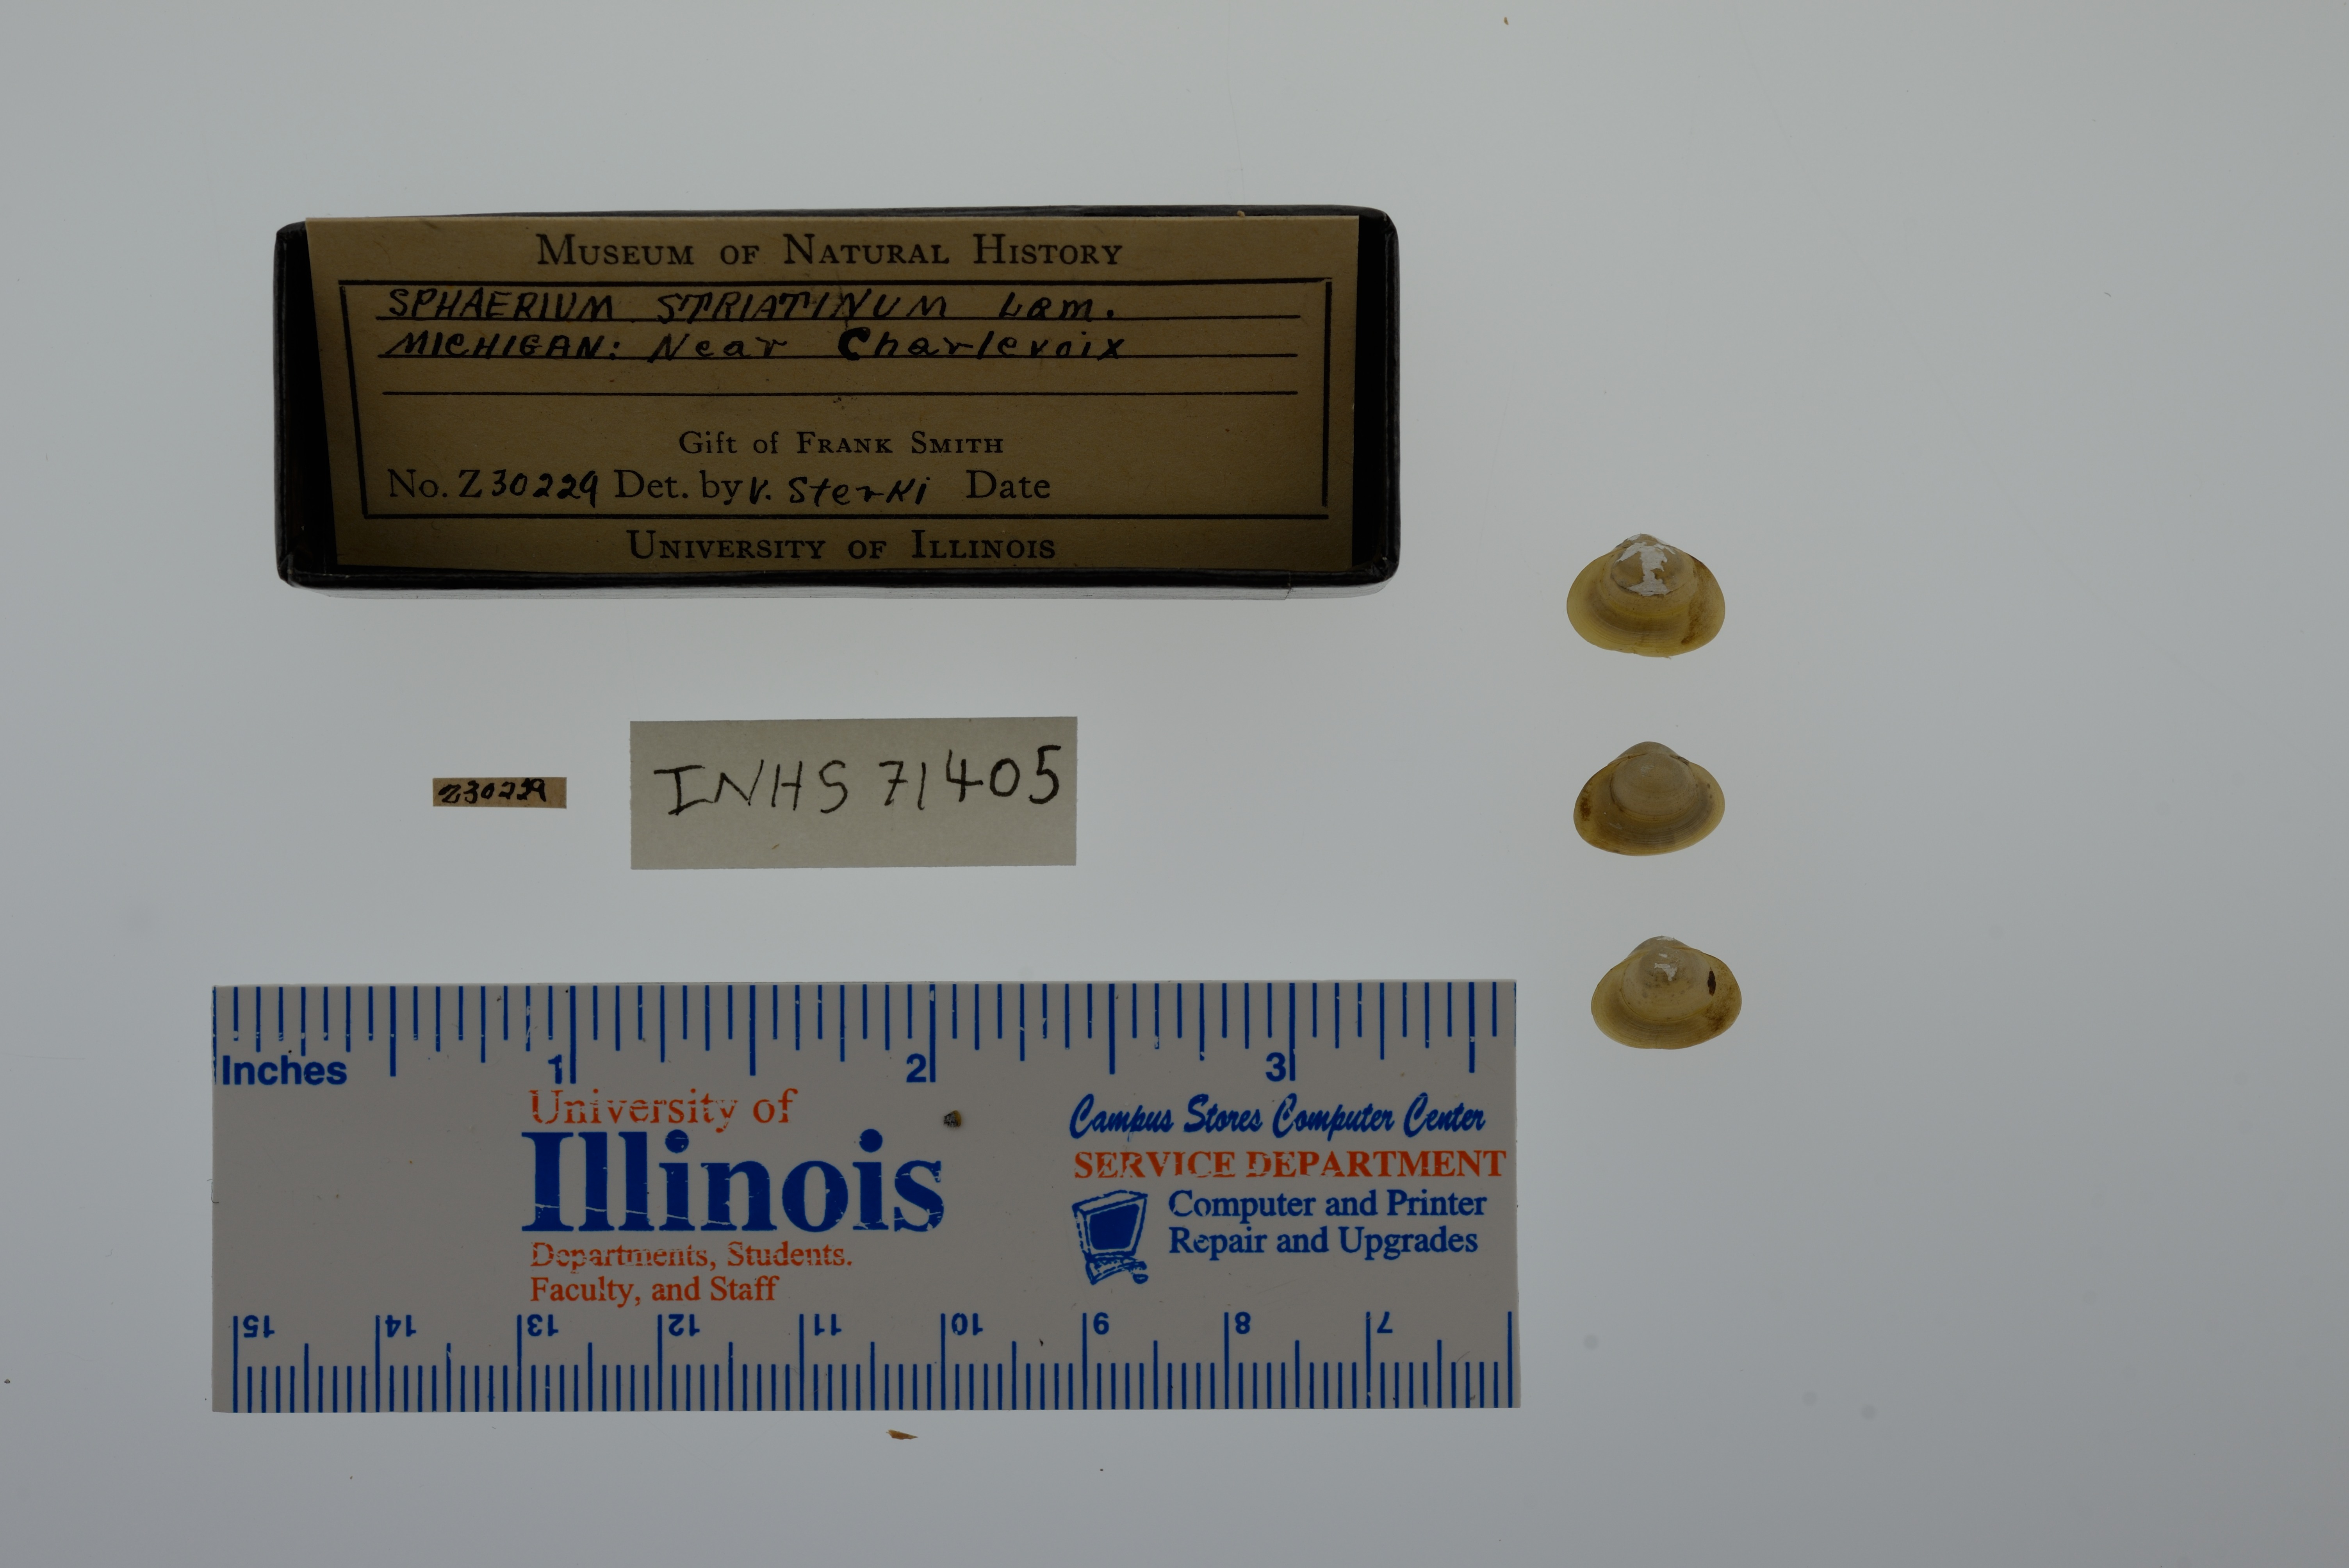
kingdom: Animalia
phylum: Mollusca
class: Bivalvia
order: Sphaeriida
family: Sphaeriidae
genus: Sphaerium
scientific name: Sphaerium striatinum
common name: Striated fingernailclam
